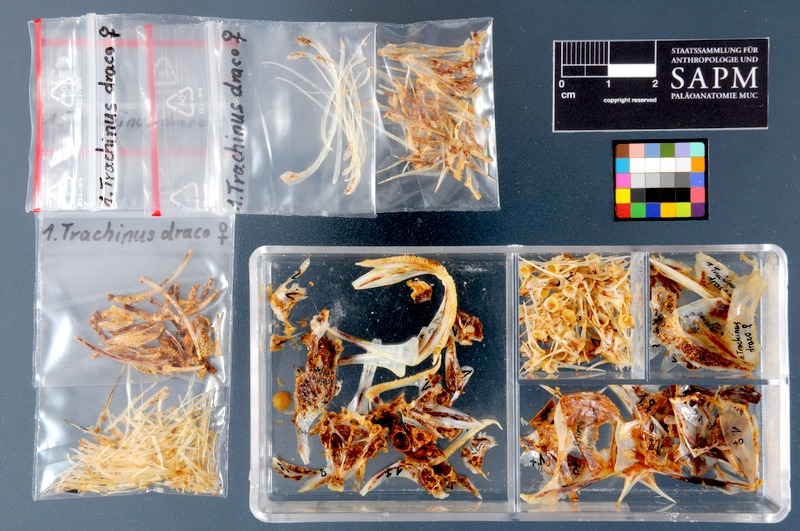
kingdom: Animalia
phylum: Chordata
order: Perciformes
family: Trachinidae
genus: Trachinus
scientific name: Trachinus draco
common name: Greater weever
